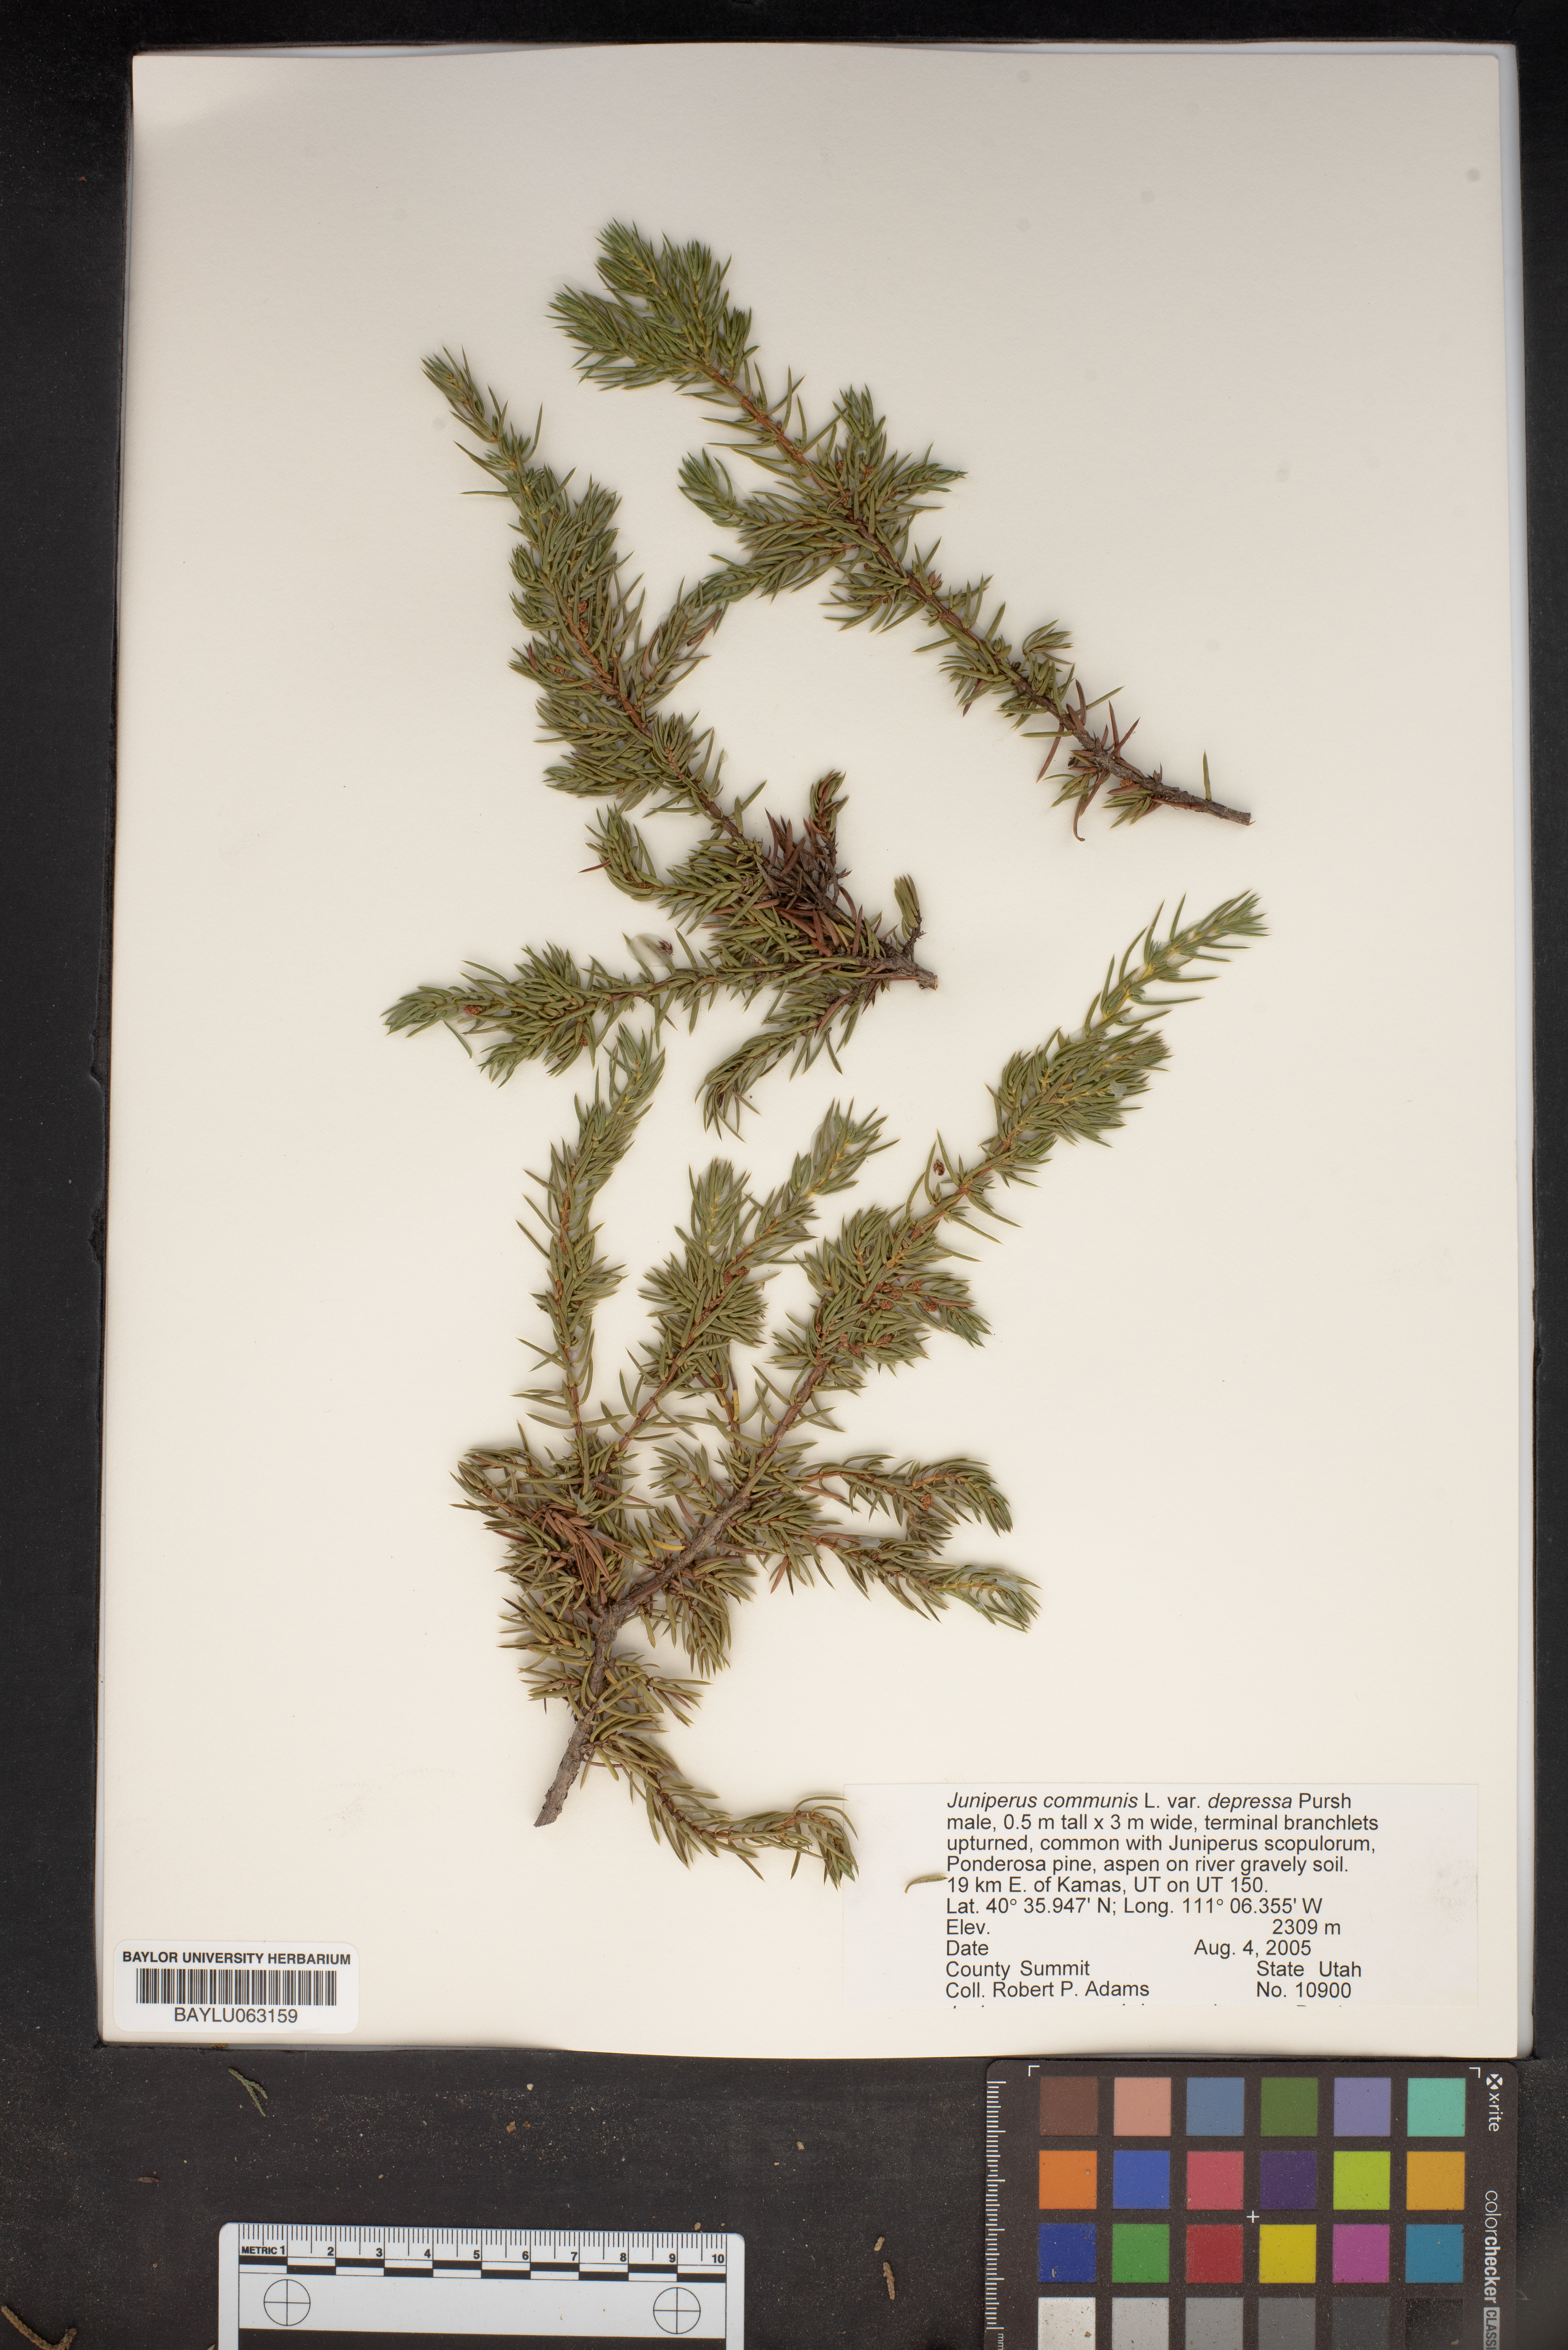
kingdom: Plantae
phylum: Tracheophyta
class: Pinopsida
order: Pinales
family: Cupressaceae
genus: Juniperus
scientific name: Juniperus communis
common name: Common juniper
